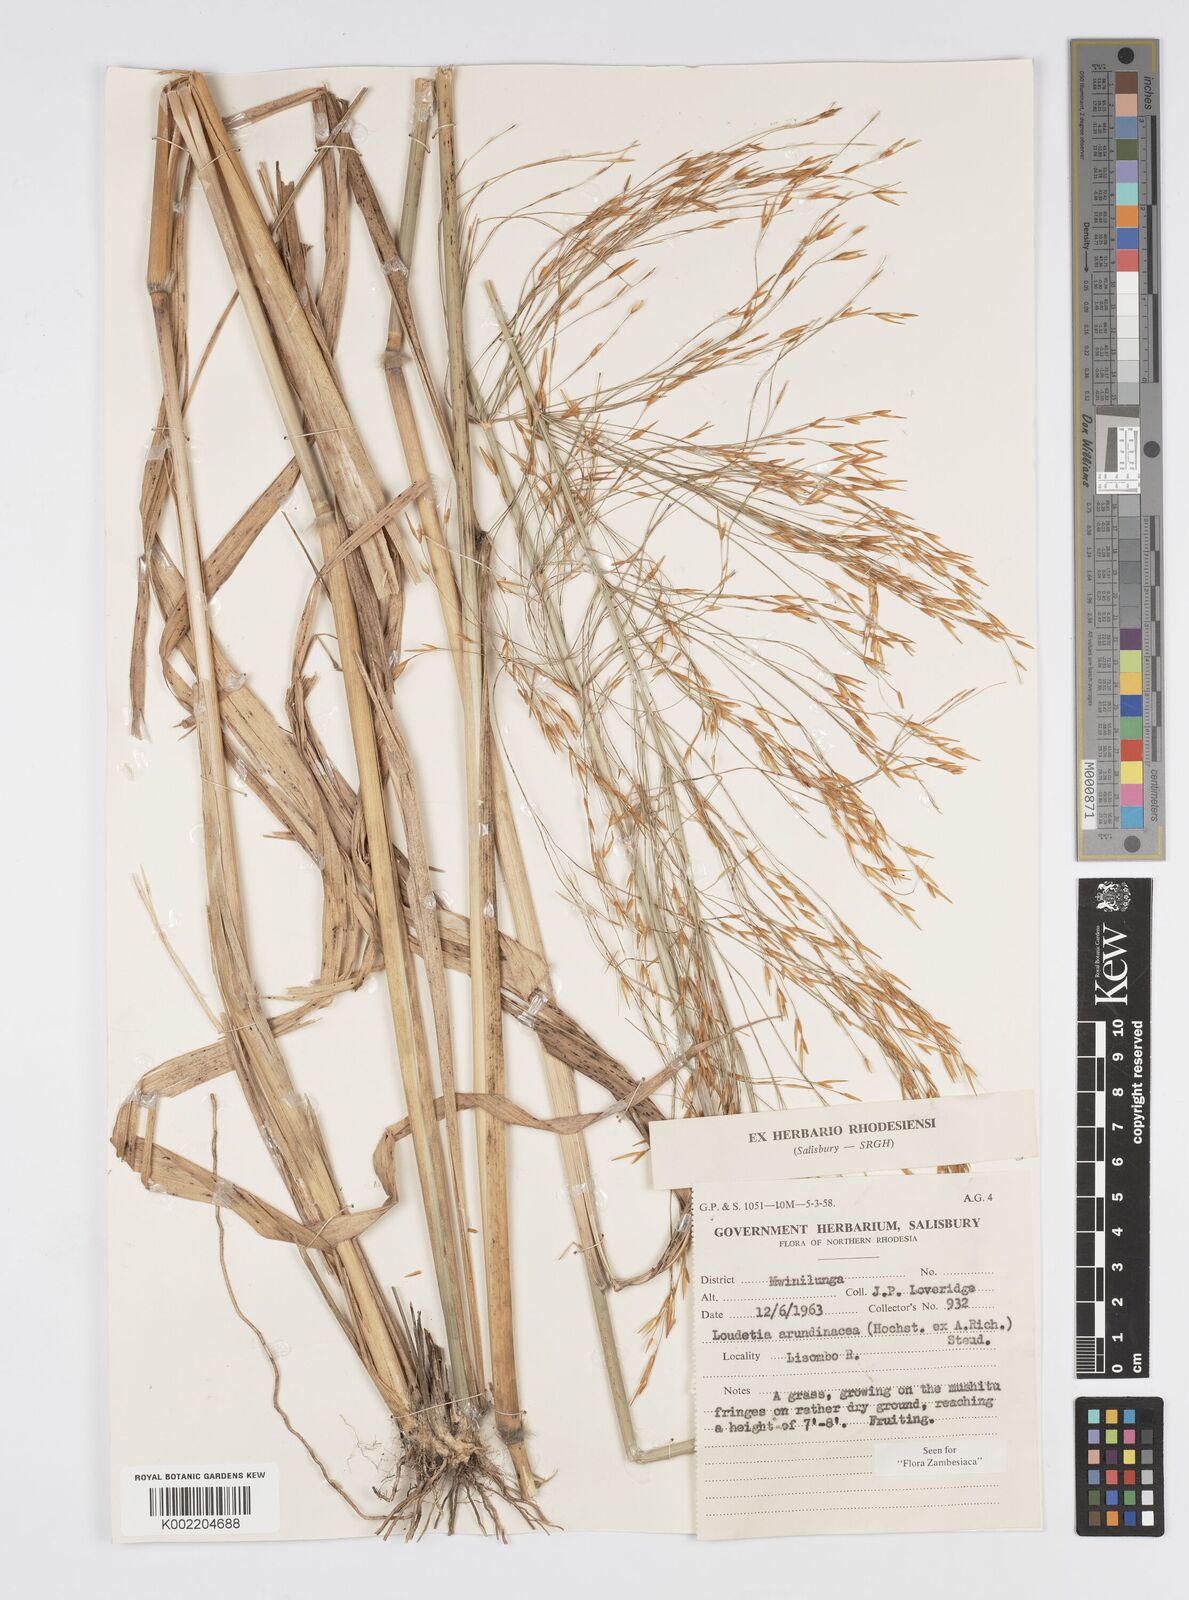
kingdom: Plantae
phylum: Tracheophyta
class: Liliopsida
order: Poales
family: Poaceae
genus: Loudetia
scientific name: Loudetia arundinacea
